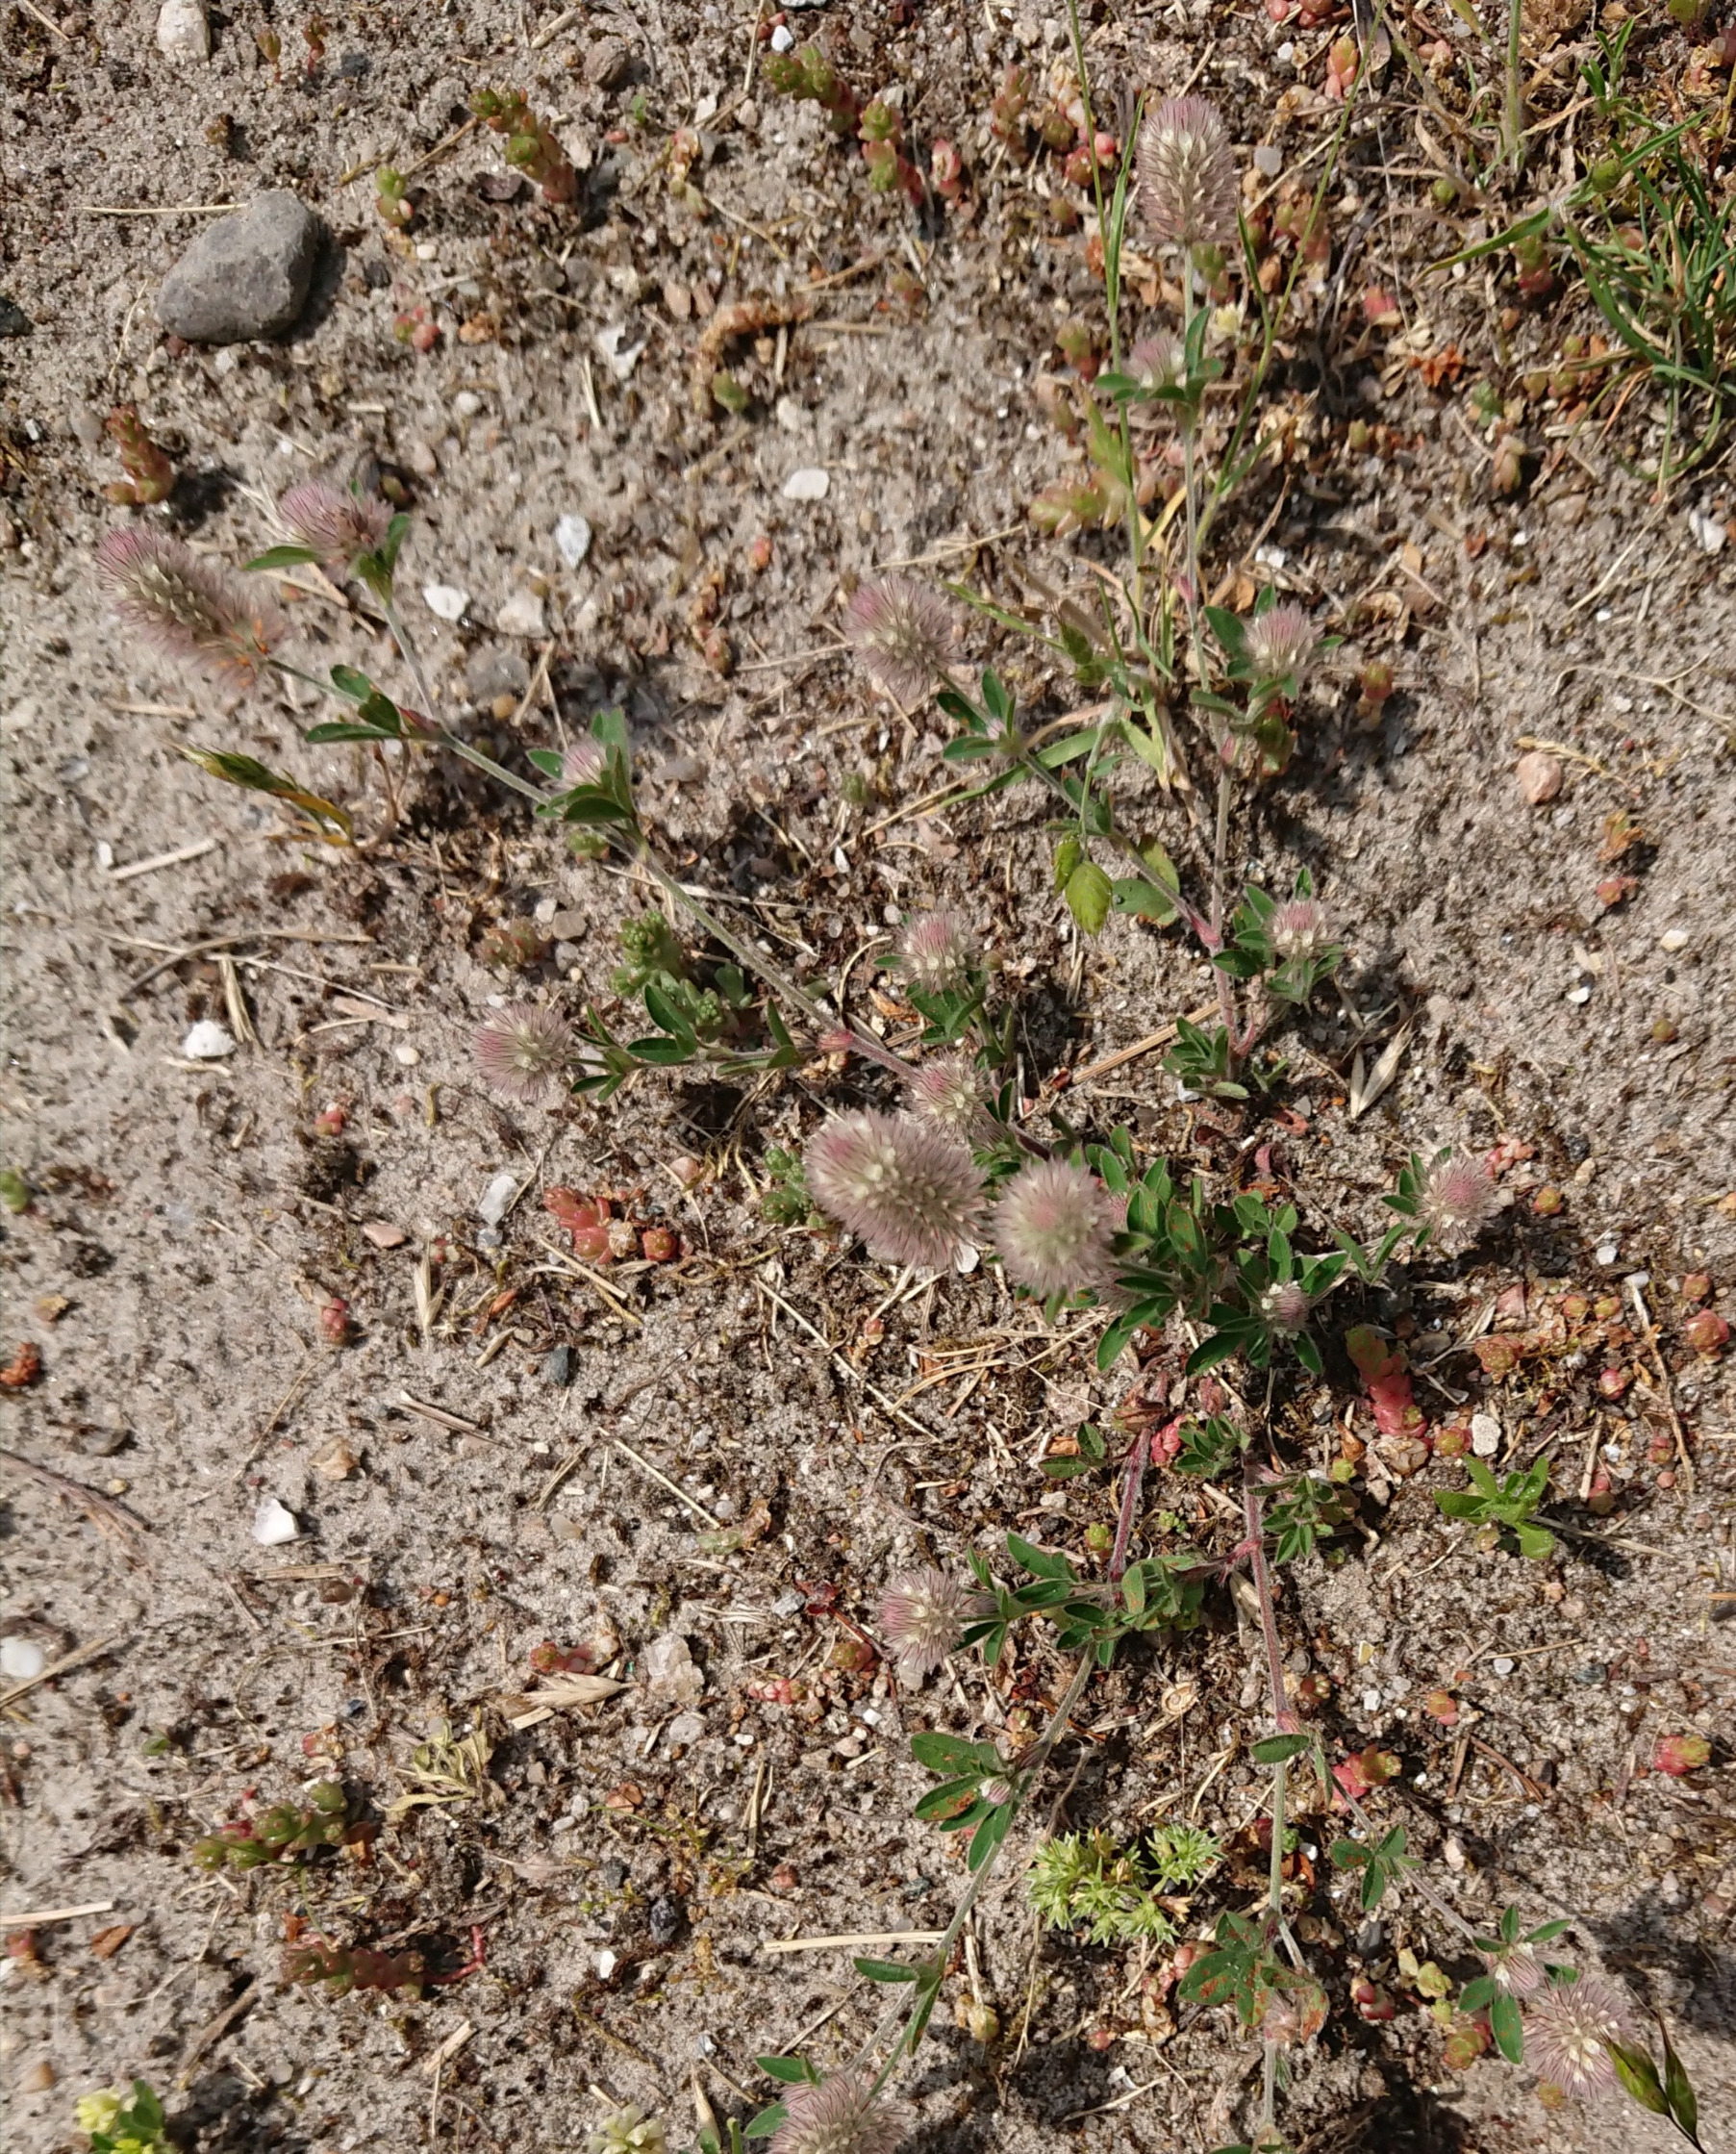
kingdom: Plantae
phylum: Tracheophyta
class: Magnoliopsida
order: Fabales
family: Fabaceae
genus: Trifolium
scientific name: Trifolium arvense
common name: Hare-kløver
